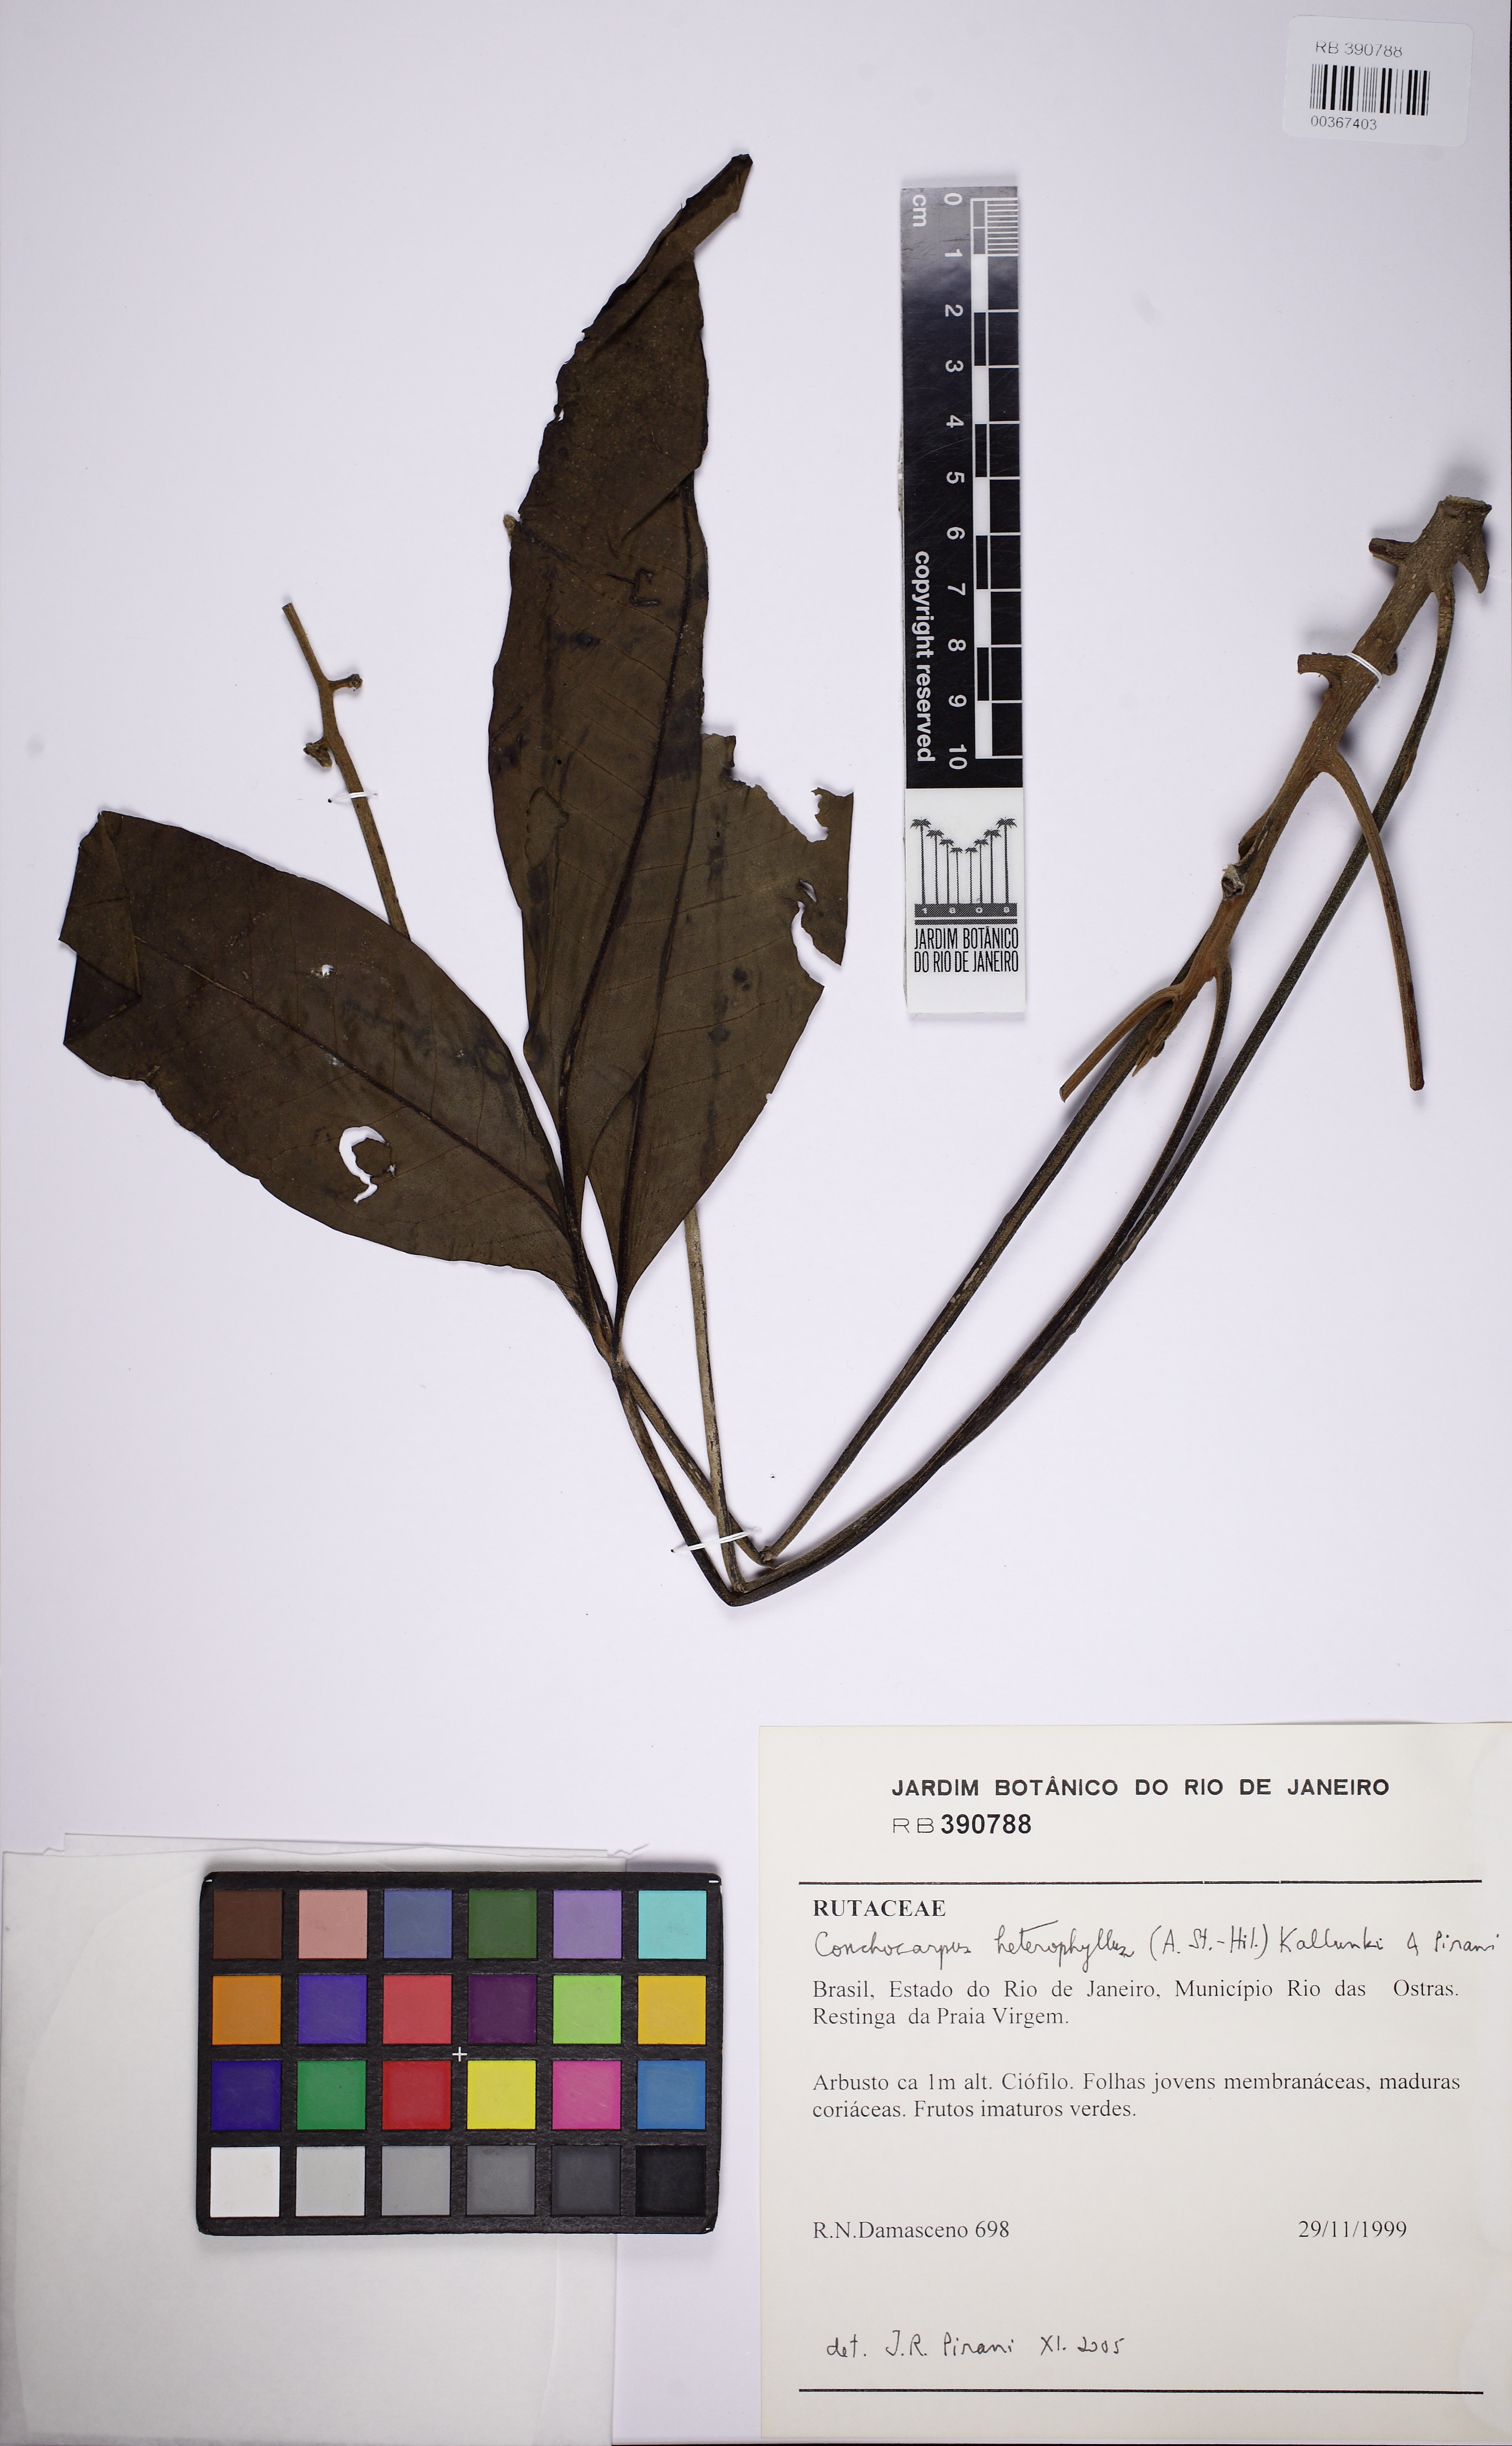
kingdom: Plantae
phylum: Tracheophyta
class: Magnoliopsida
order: Sapindales
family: Rutaceae
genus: Conchocarpus
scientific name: Conchocarpus heterophyllus
